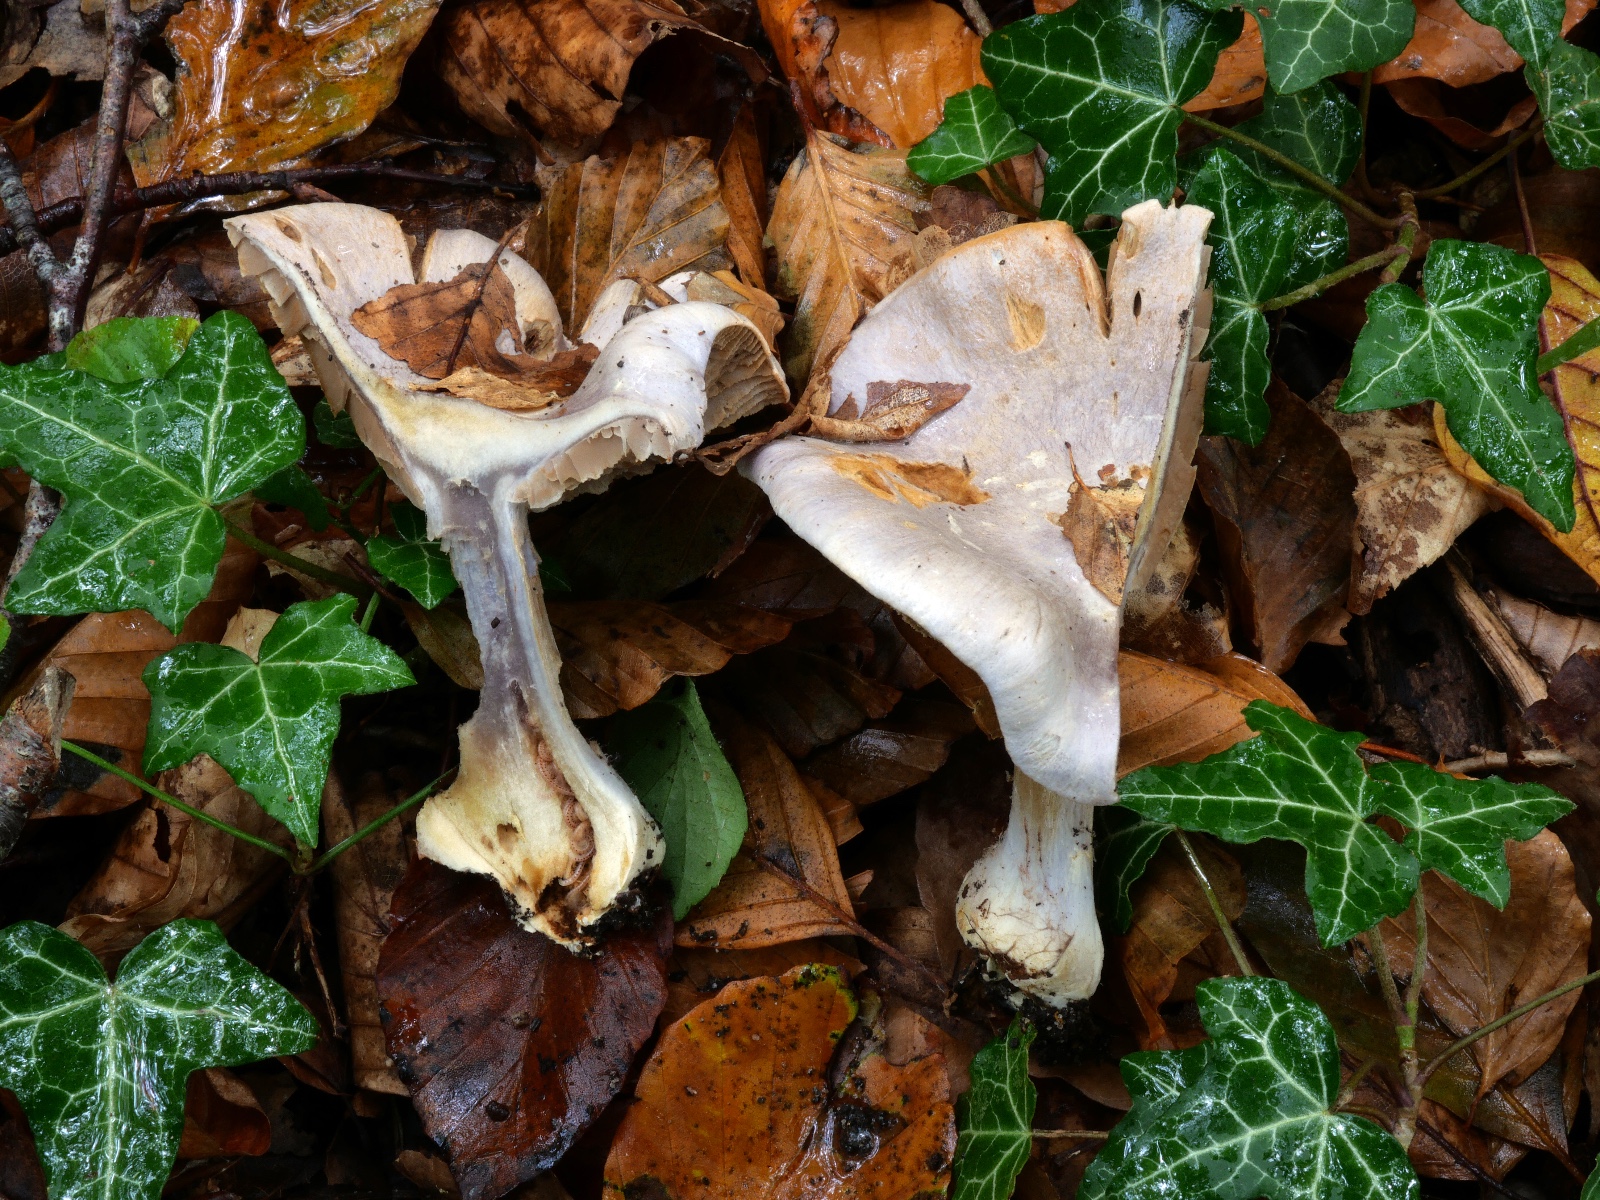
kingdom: Fungi
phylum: Basidiomycota
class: Agaricomycetes
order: Agaricales
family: Cortinariaceae
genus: Cortinarius
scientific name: Cortinarius caerulescens
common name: blåkødet slørhat
